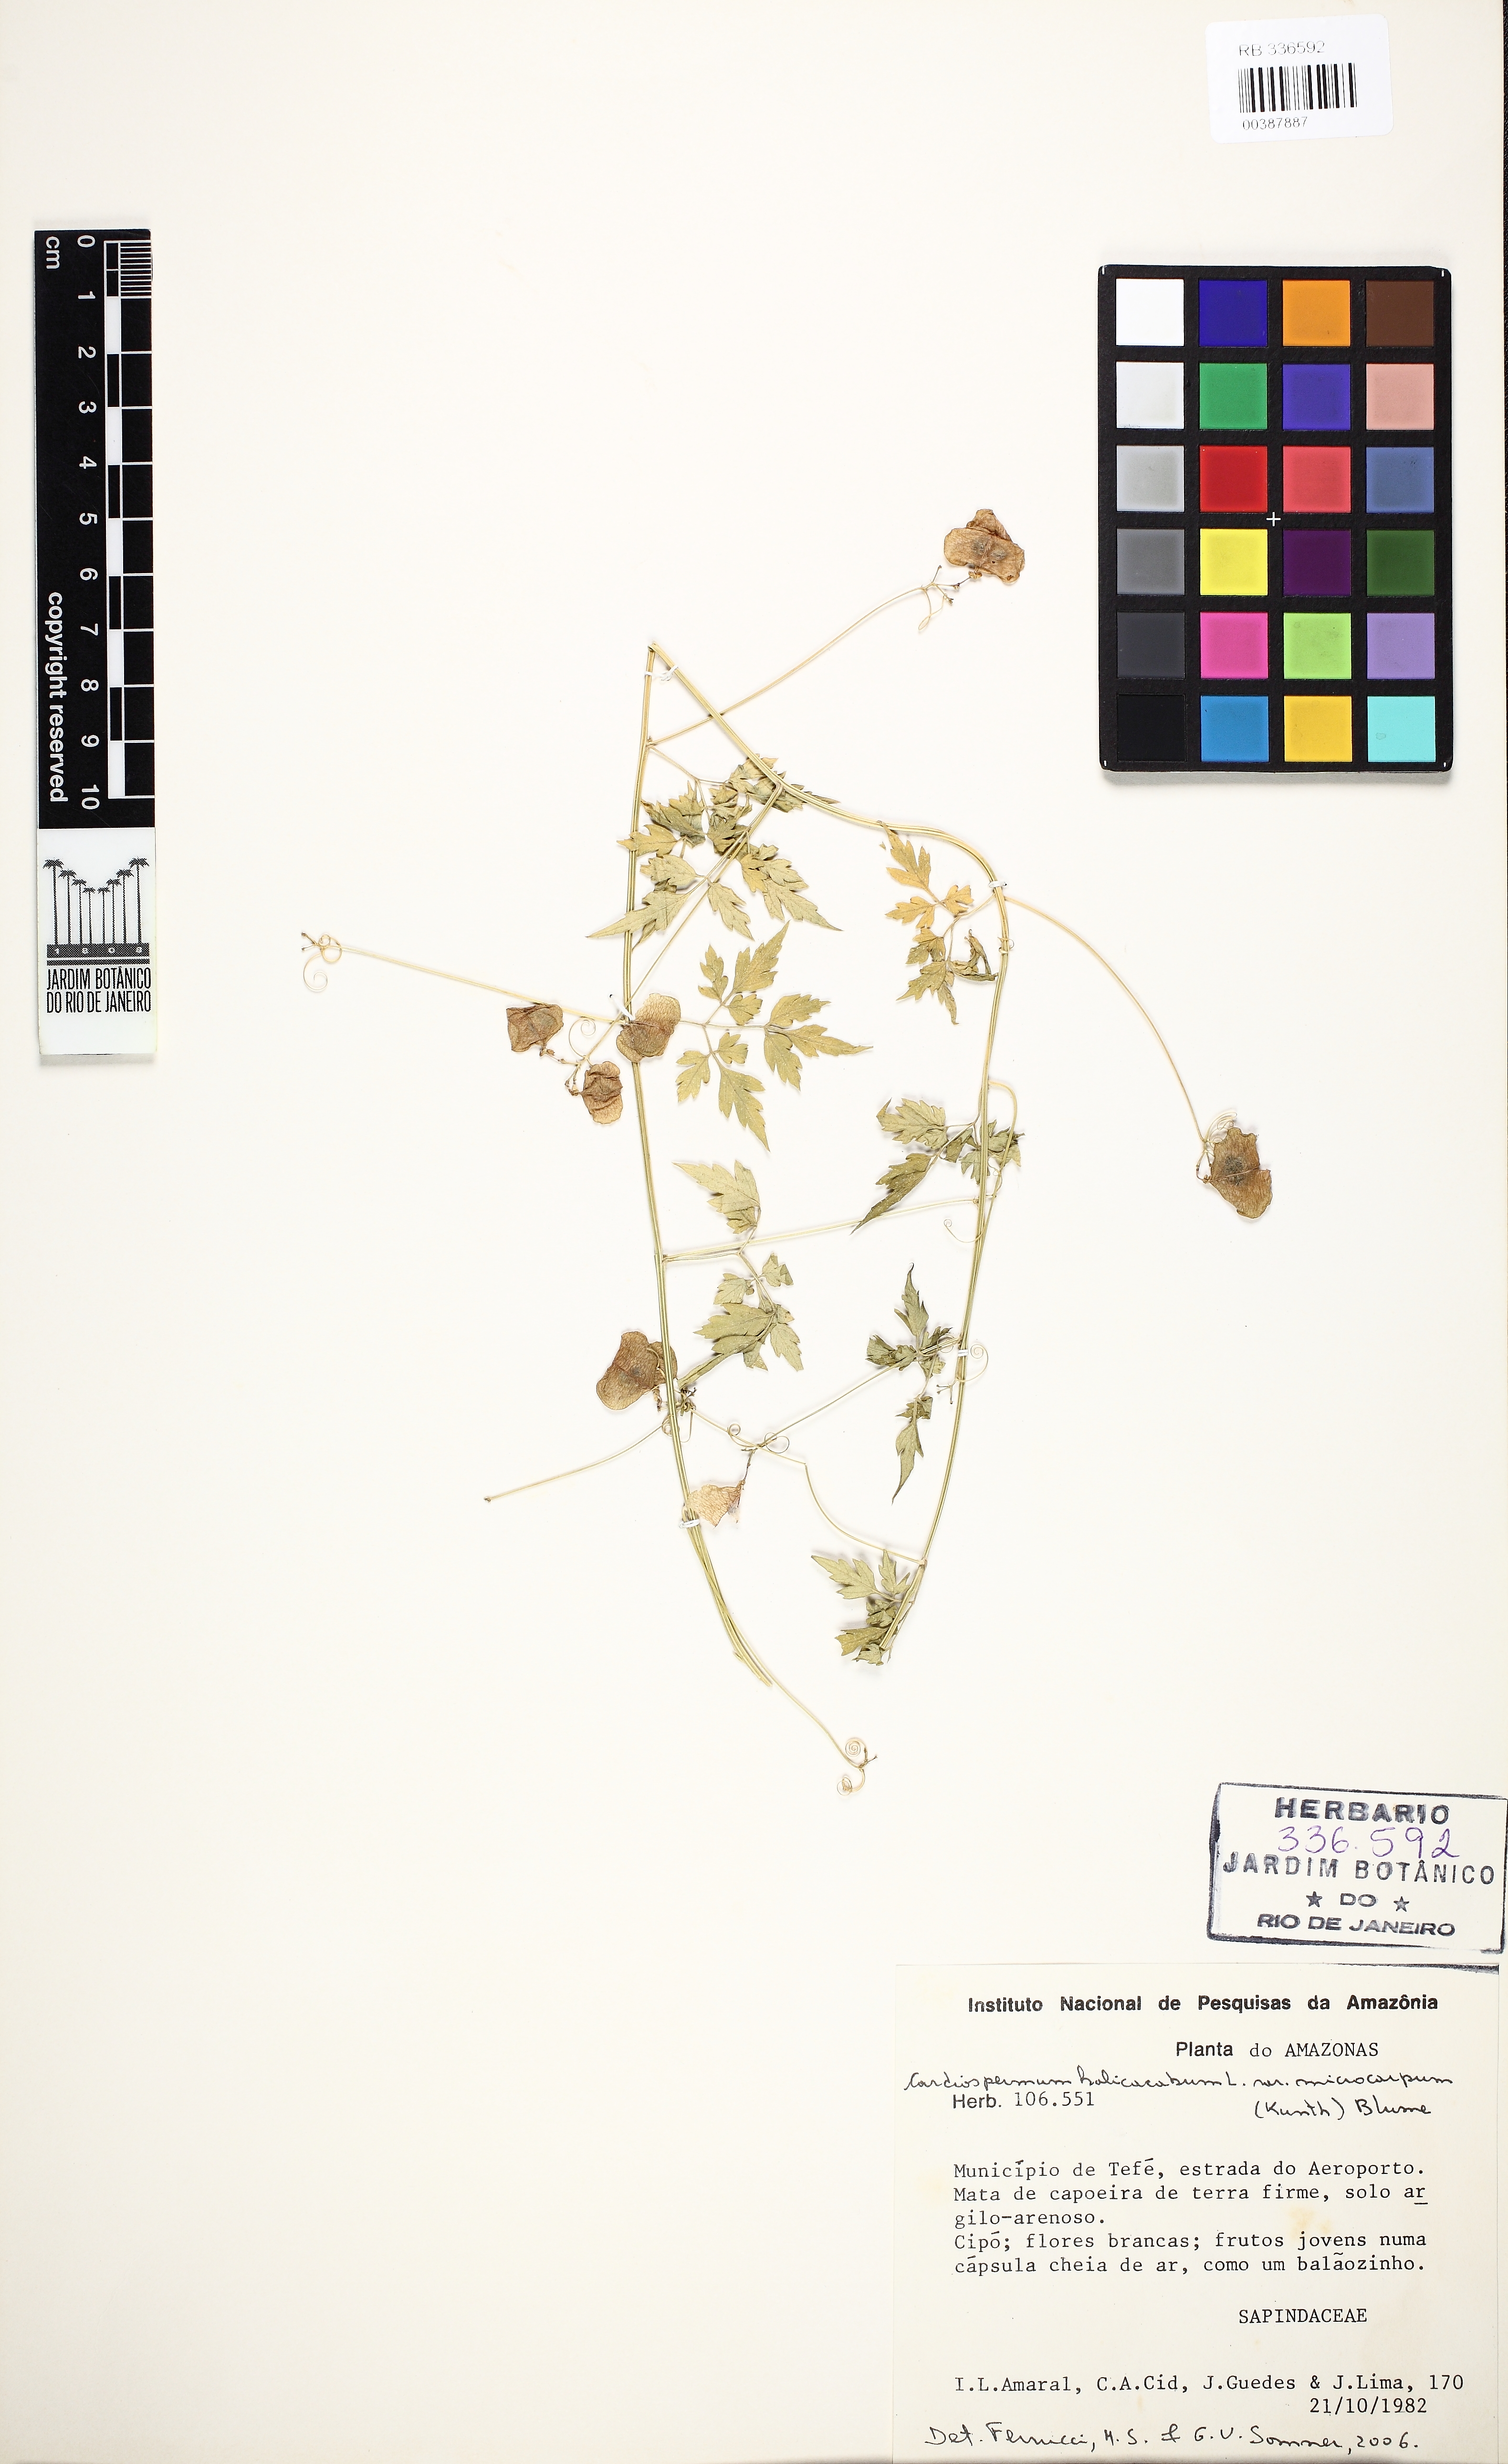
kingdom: Plantae
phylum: Tracheophyta
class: Magnoliopsida
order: Sapindales
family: Sapindaceae
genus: Cardiospermum
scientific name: Cardiospermum microcarpum
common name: Heart seed
